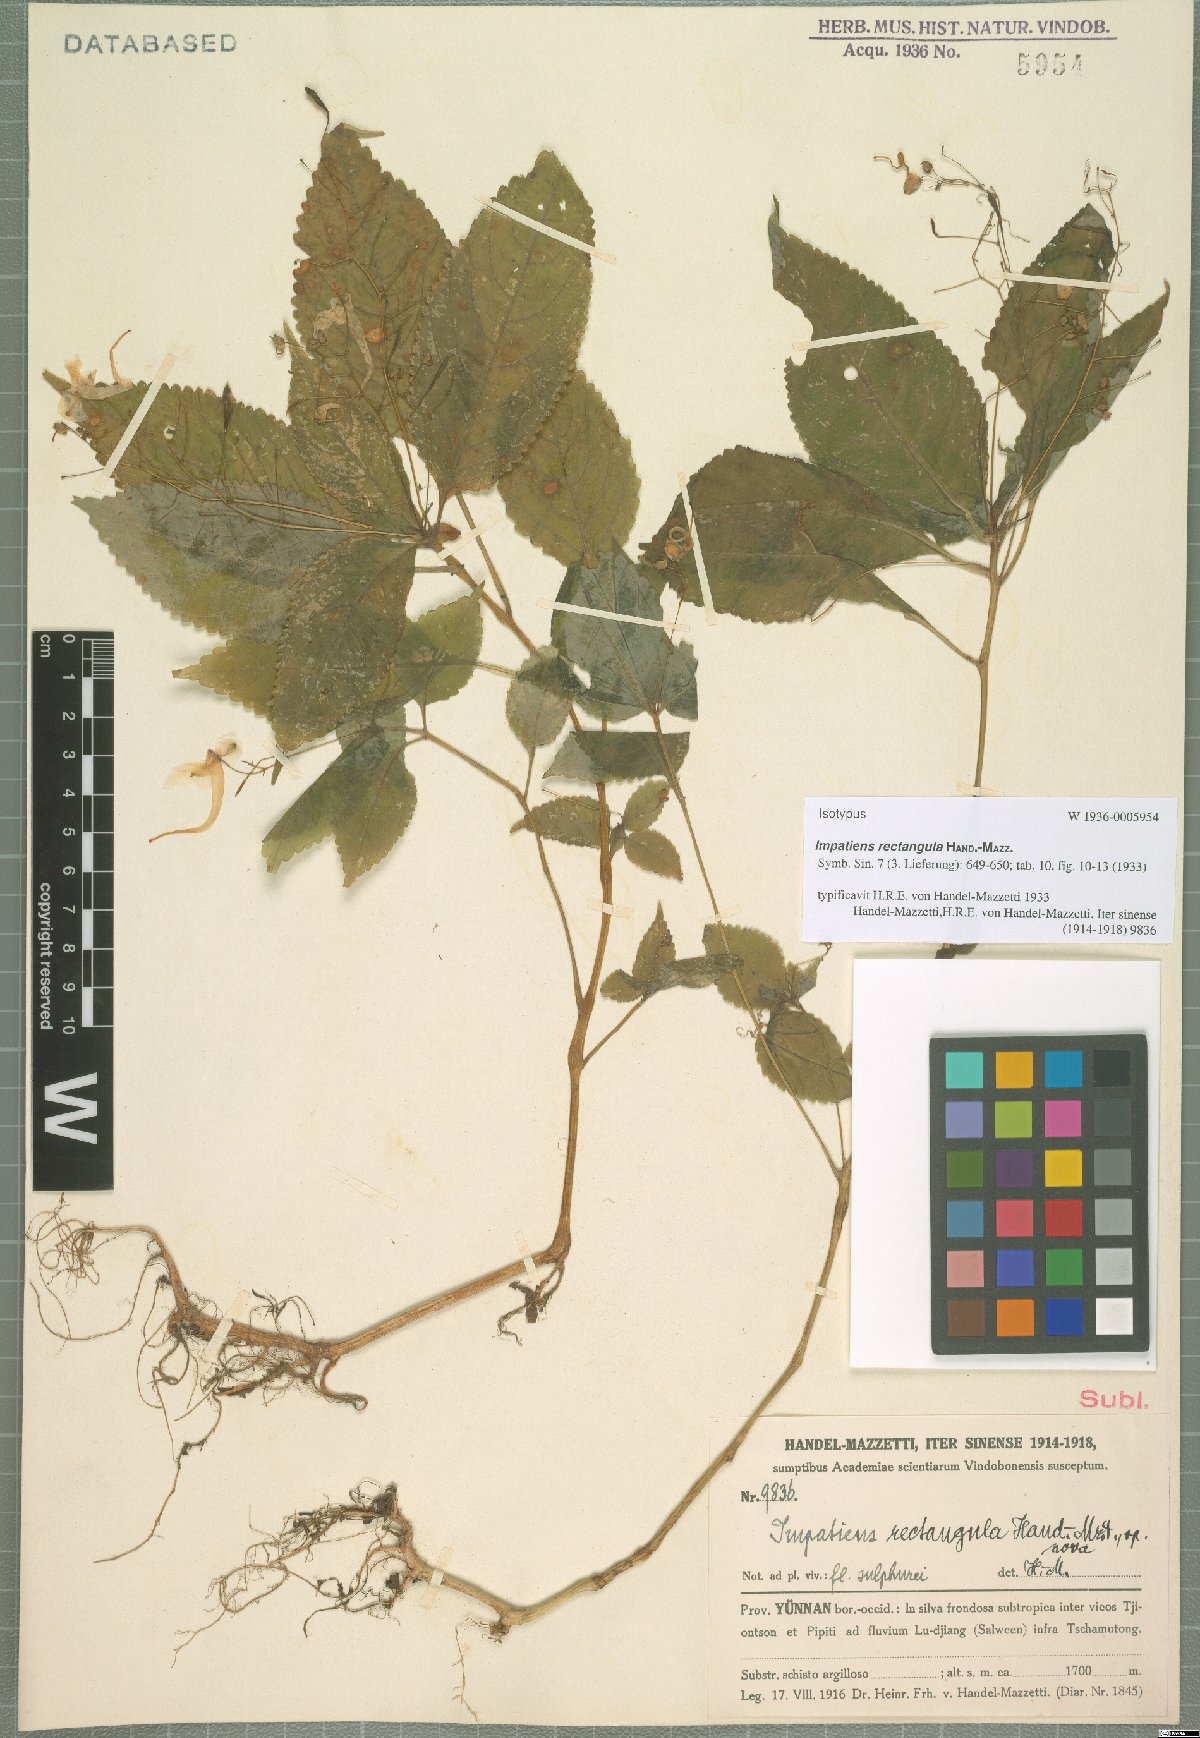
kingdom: Plantae
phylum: Tracheophyta
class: Magnoliopsida
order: Ericales
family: Balsaminaceae
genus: Impatiens
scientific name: Impatiens rectangula
